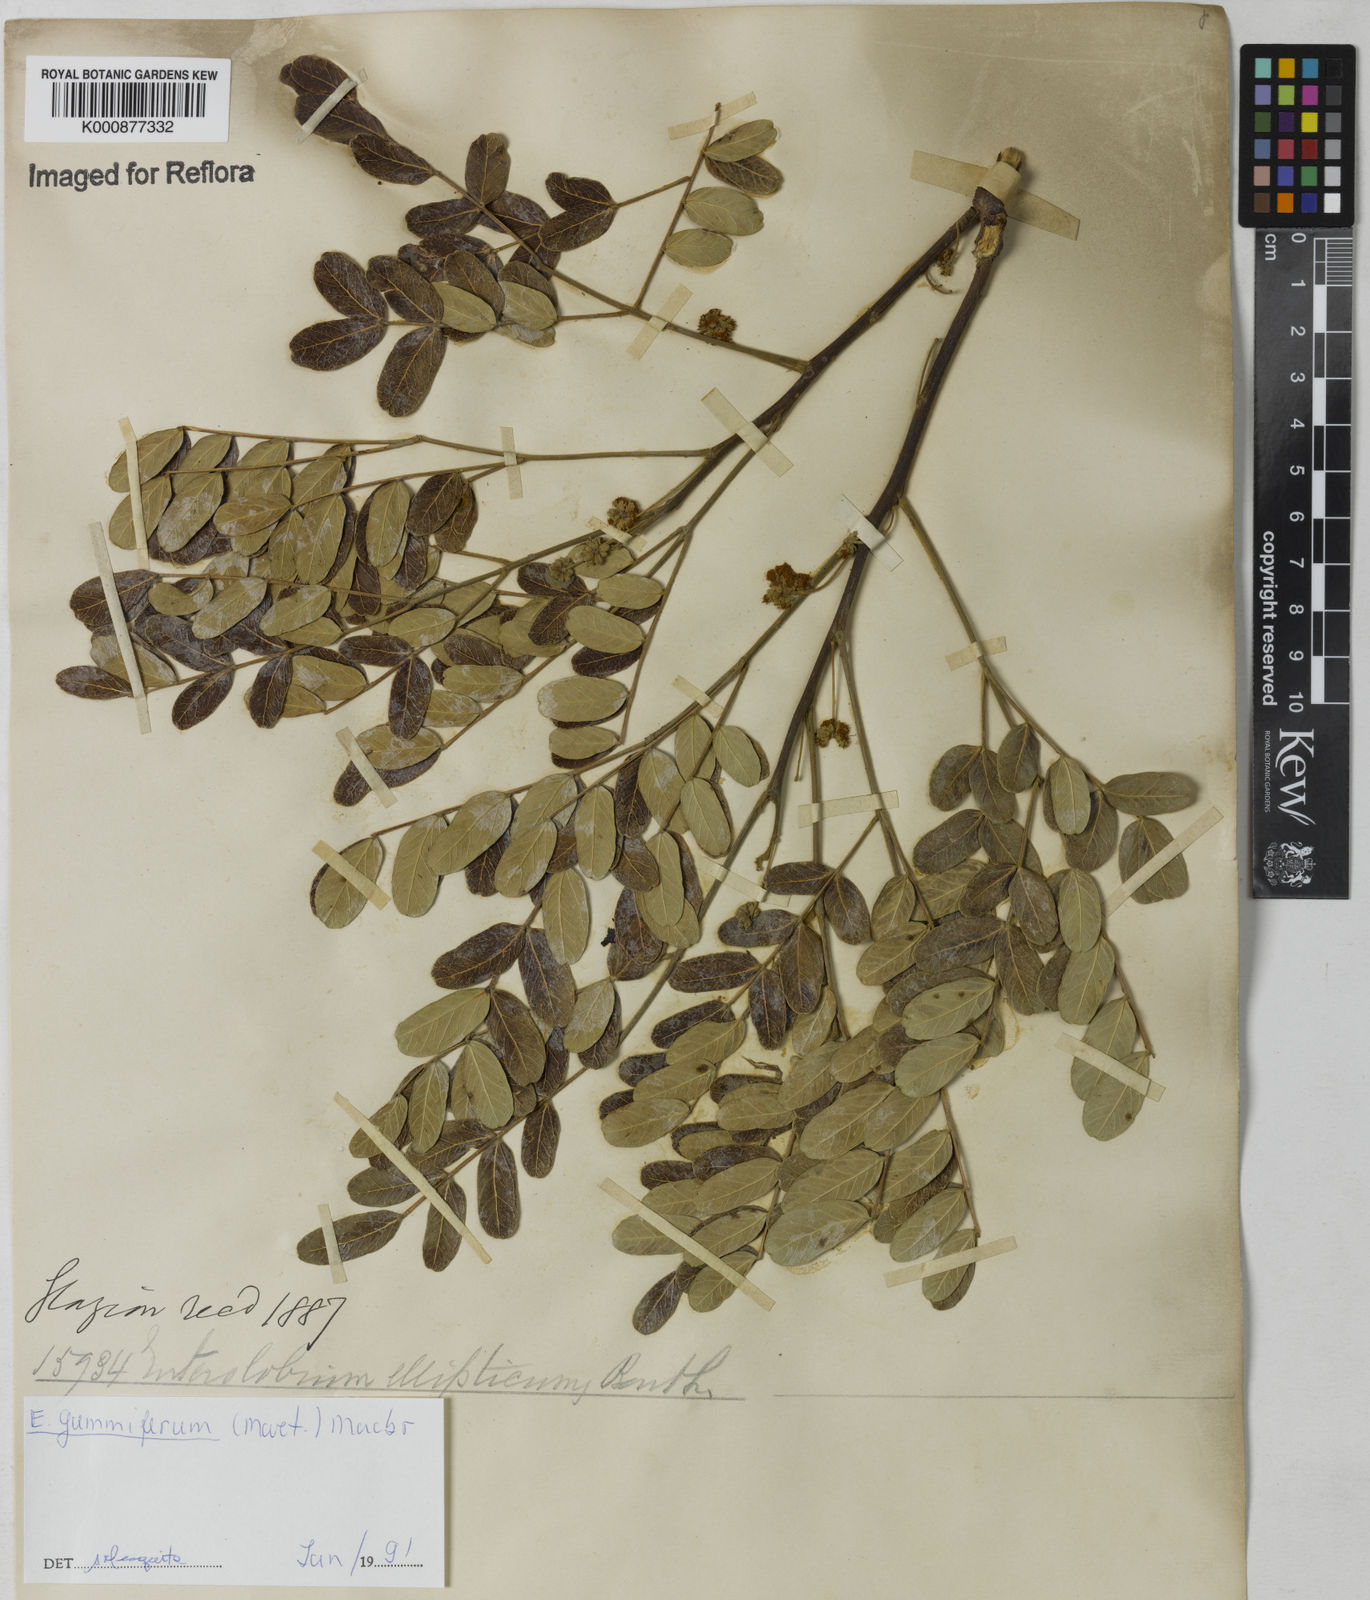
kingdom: Plantae
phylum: Tracheophyta
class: Magnoliopsida
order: Fabales
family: Fabaceae
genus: Enterolobium
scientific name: Enterolobium gummiferum
